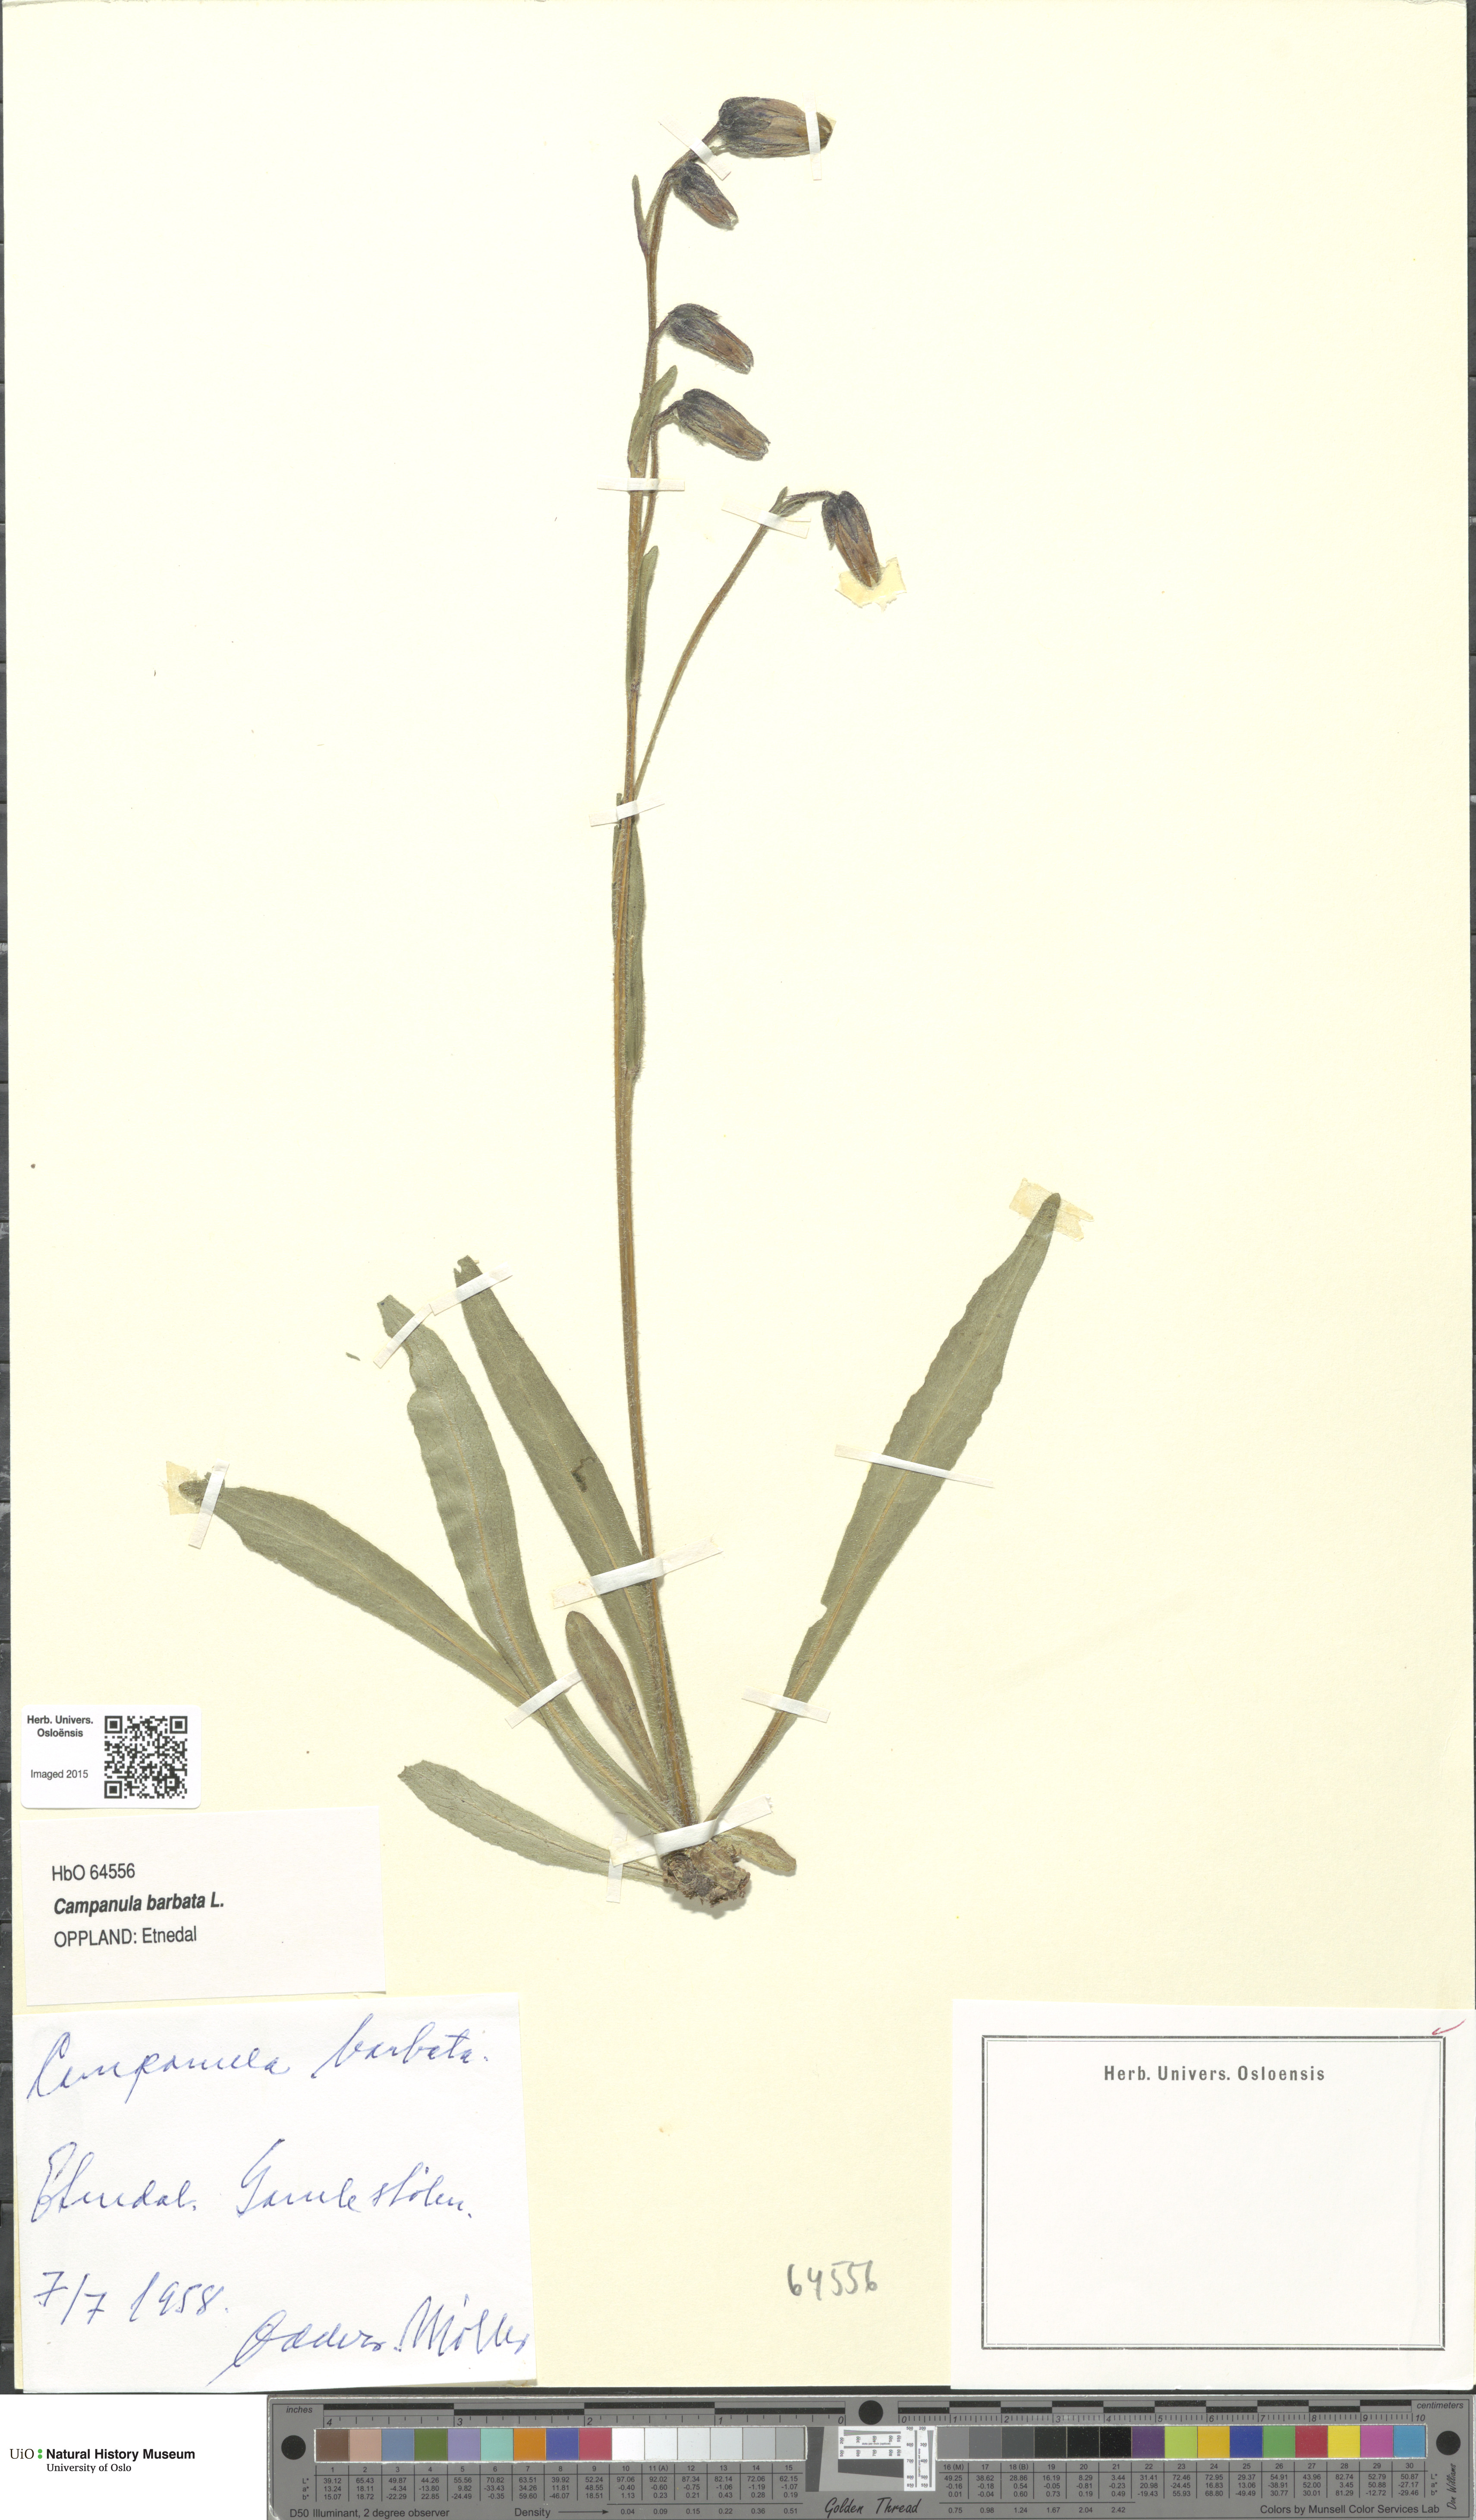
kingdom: Plantae
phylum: Tracheophyta
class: Magnoliopsida
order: Asterales
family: Campanulaceae
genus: Campanula
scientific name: Campanula barbata
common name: Bearded bellflower
